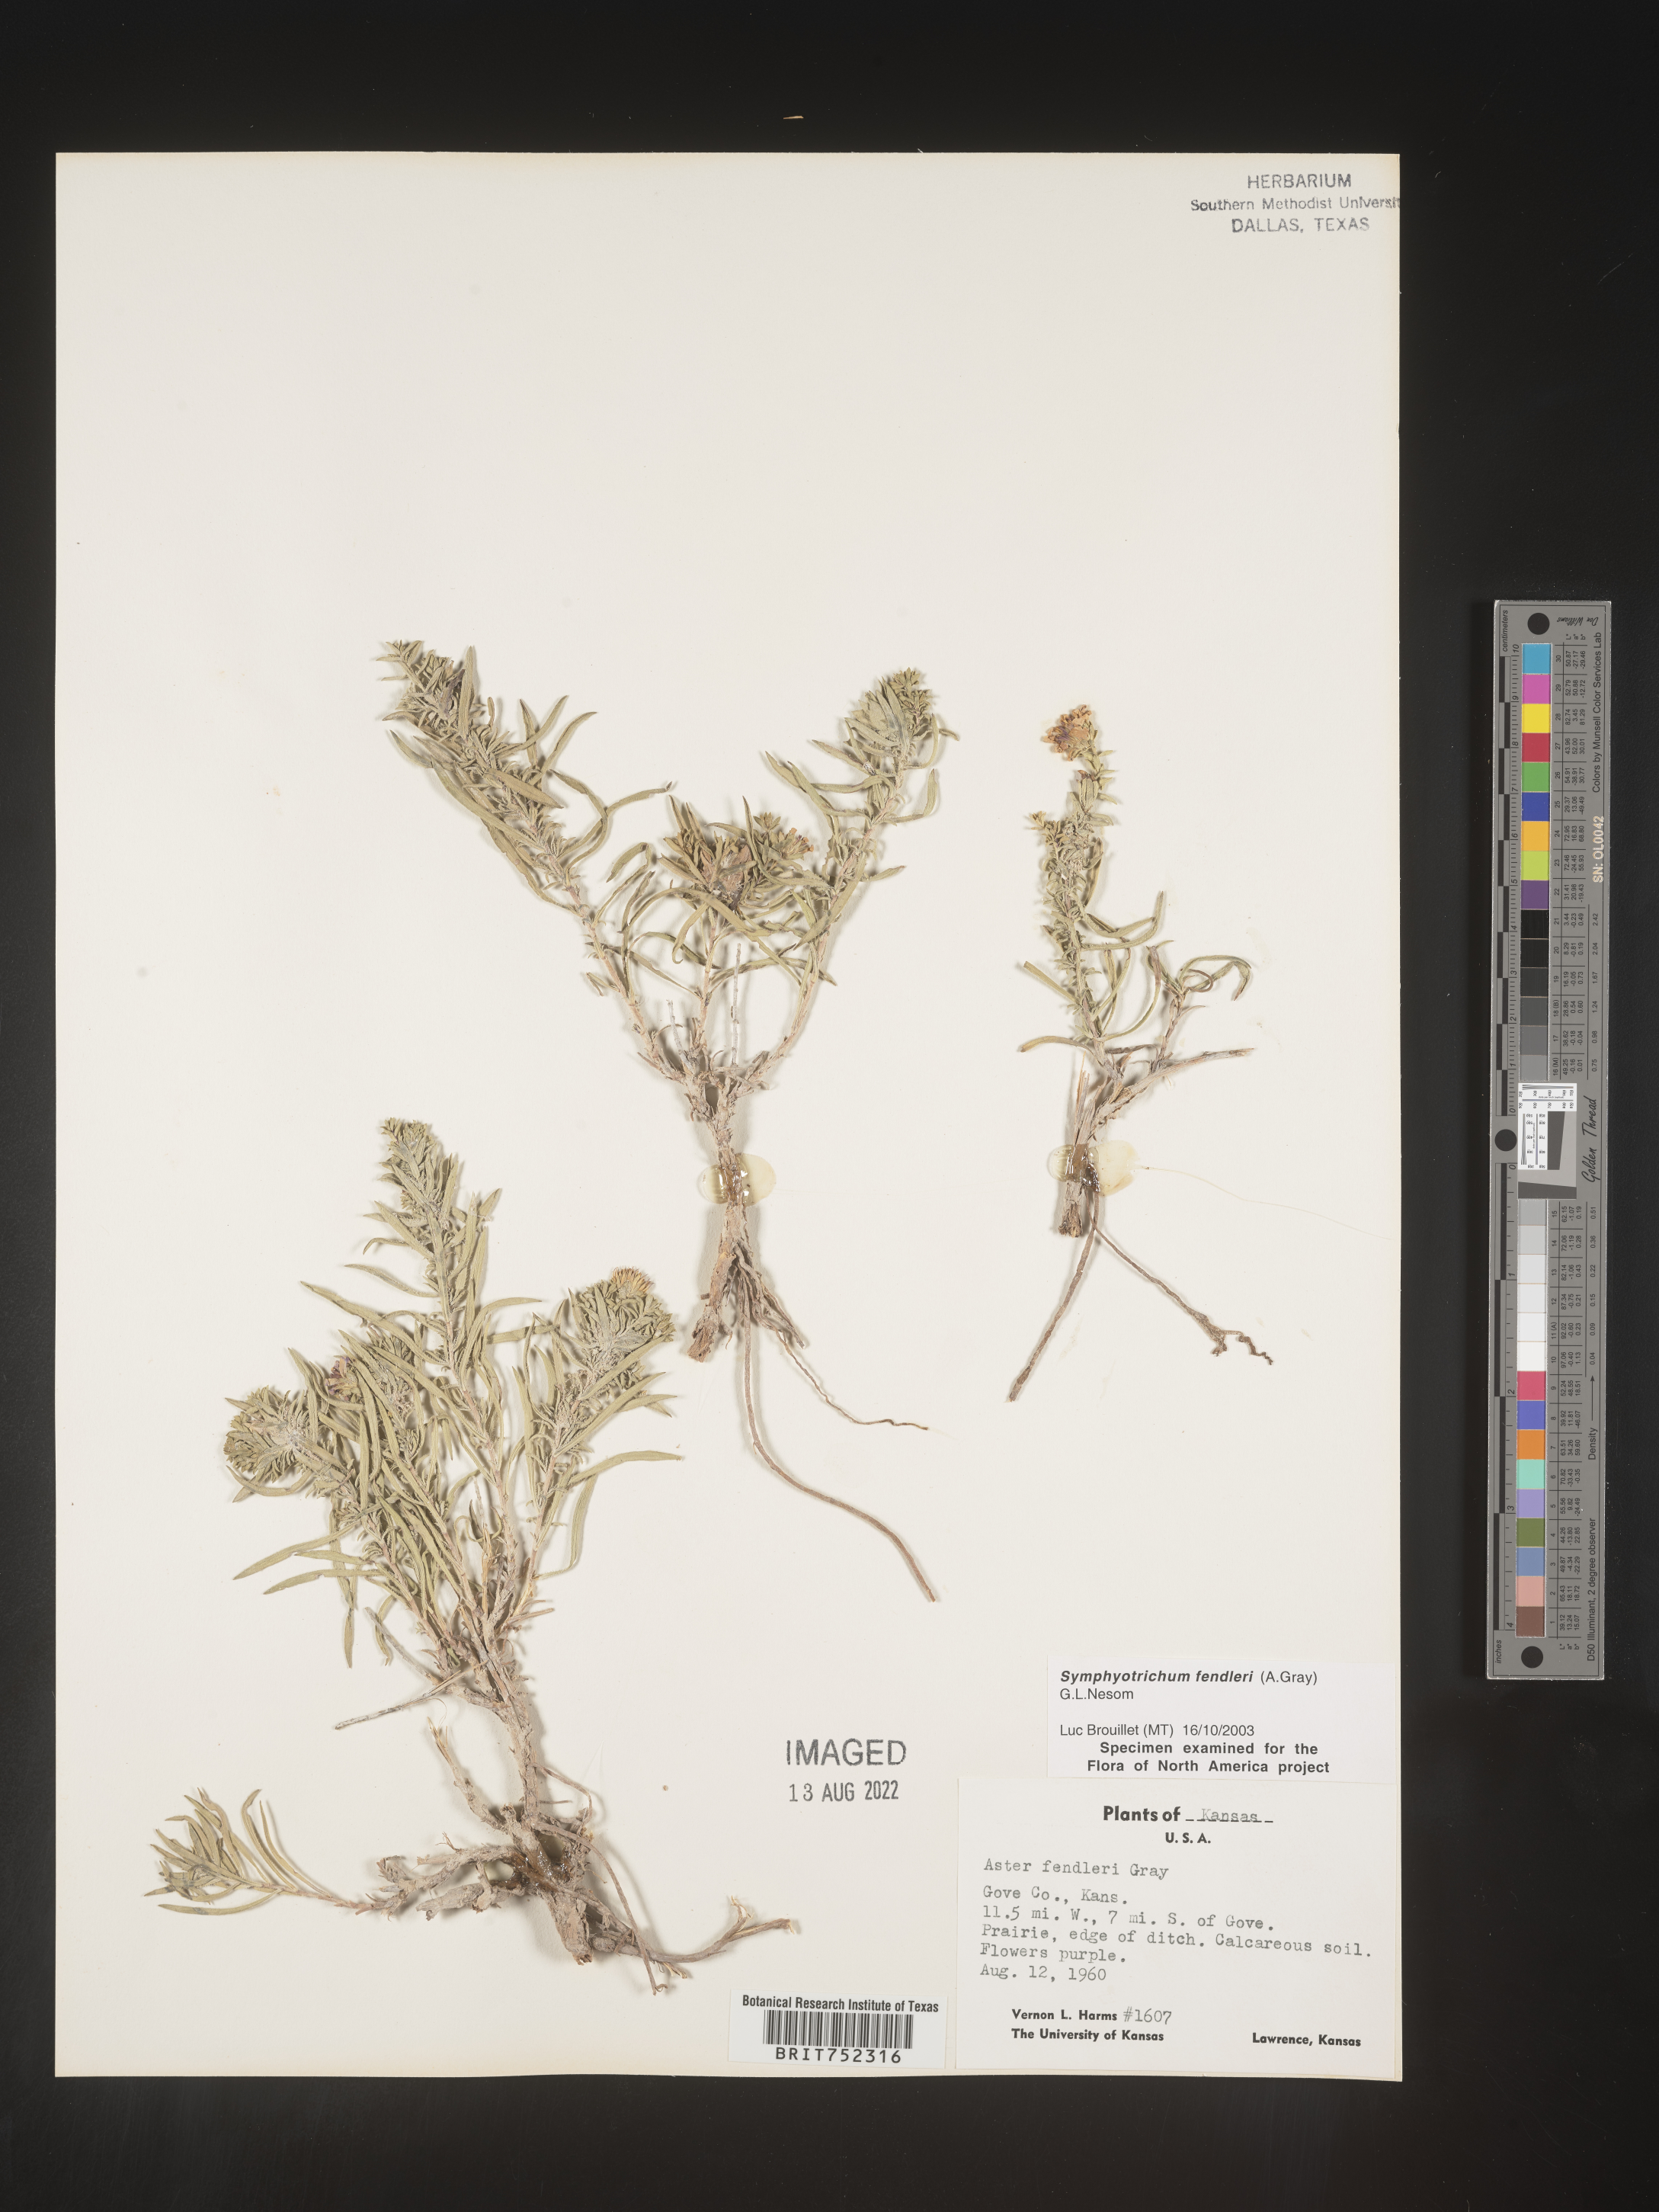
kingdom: Plantae
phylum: Tracheophyta
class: Magnoliopsida
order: Asterales
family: Asteraceae
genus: Symphyotrichum
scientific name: Symphyotrichum fendleri
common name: Fendler's aster
